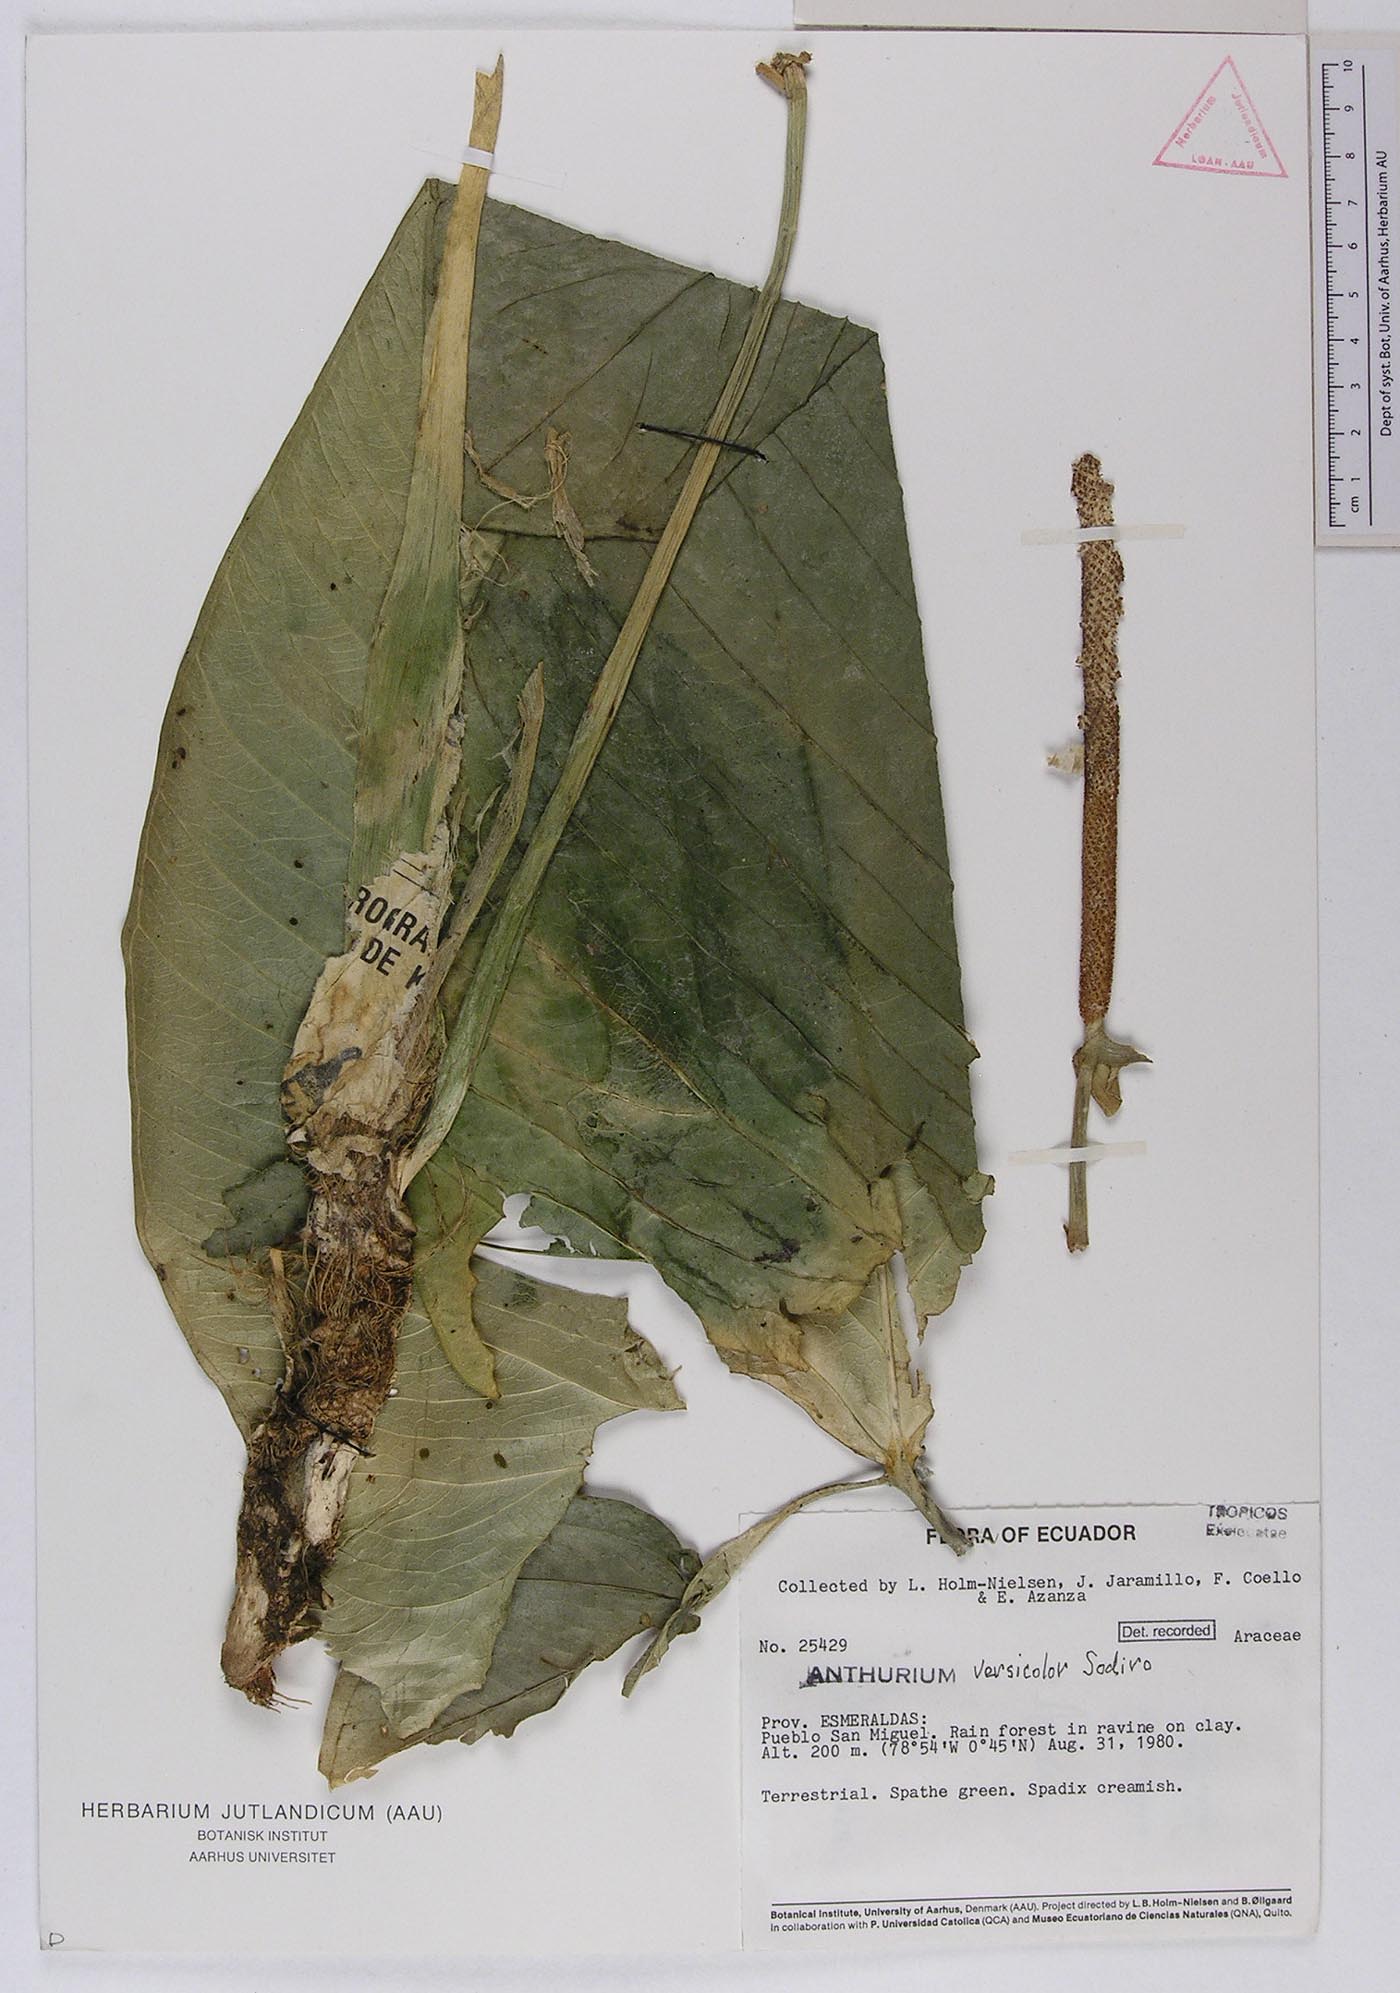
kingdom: Plantae
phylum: Tracheophyta
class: Liliopsida
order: Alismatales
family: Araceae
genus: Anthurium
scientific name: Anthurium versicolor
